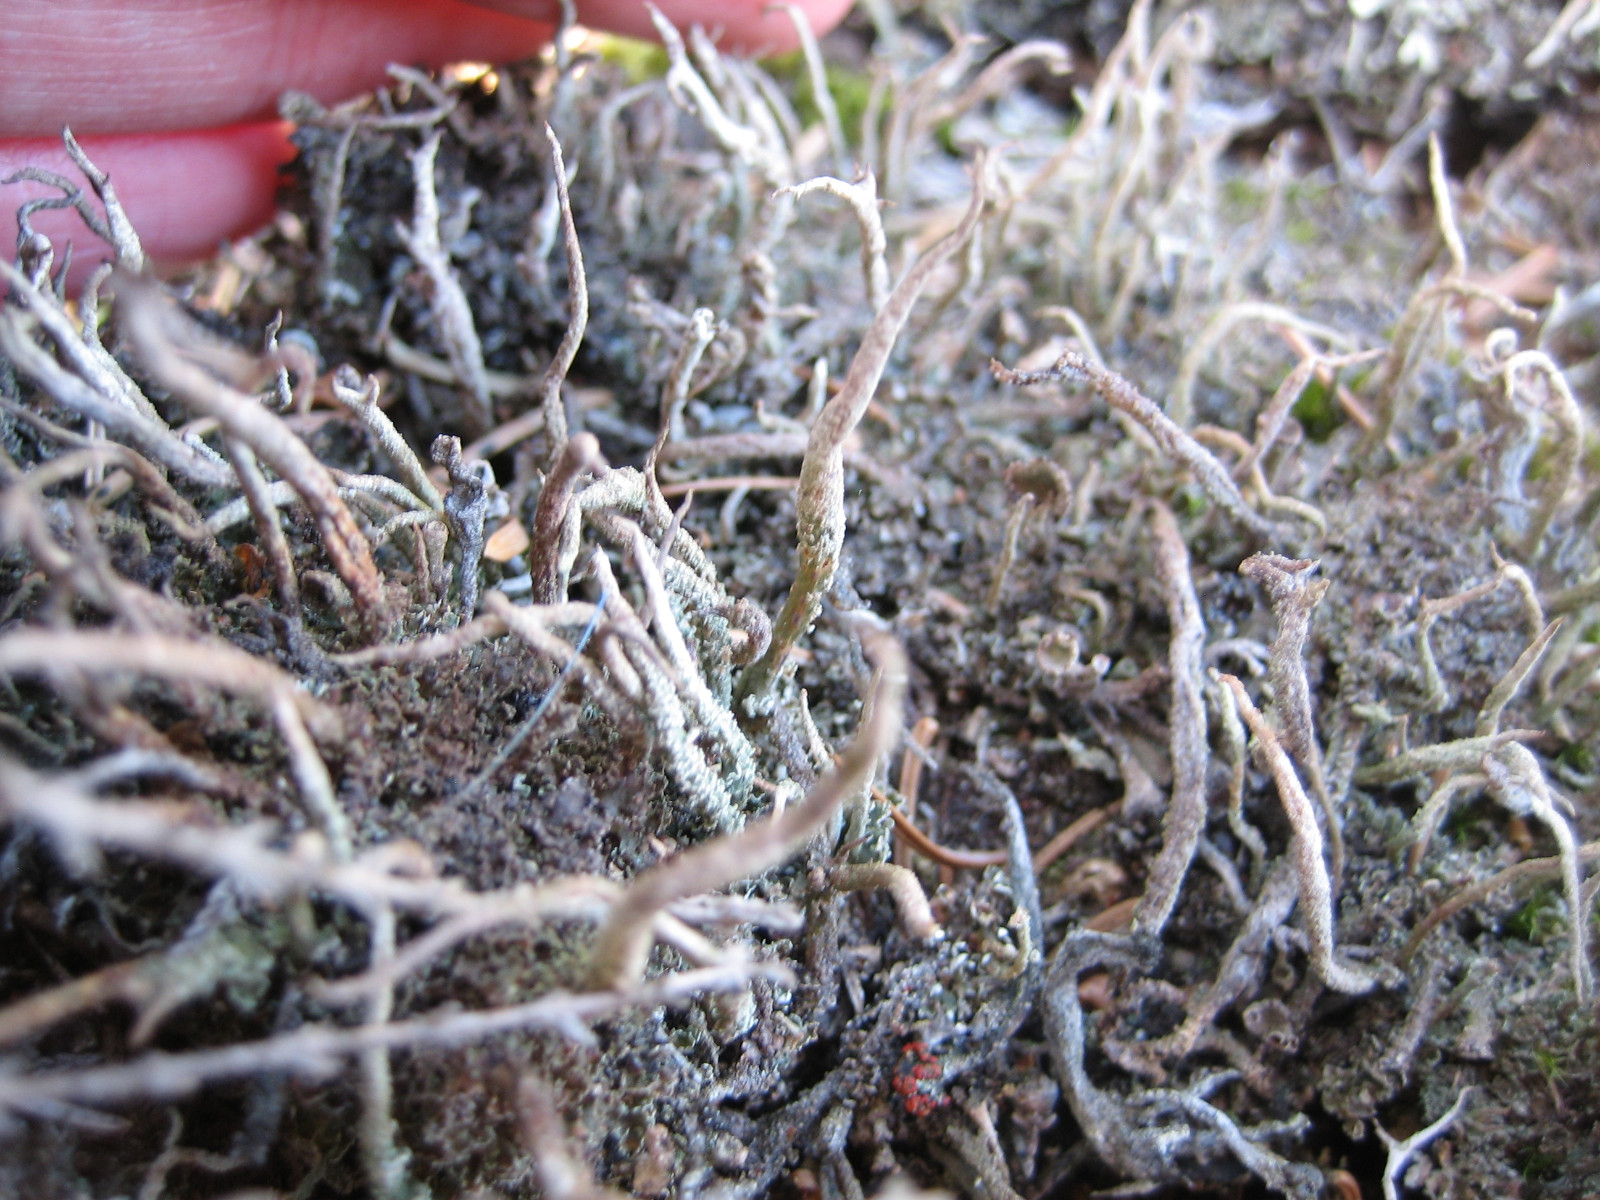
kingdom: Fungi
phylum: Ascomycota
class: Lecanoromycetes
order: Lecanorales
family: Cladoniaceae
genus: Cladonia
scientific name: Cladonia cornuta
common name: syl-bægerlav
